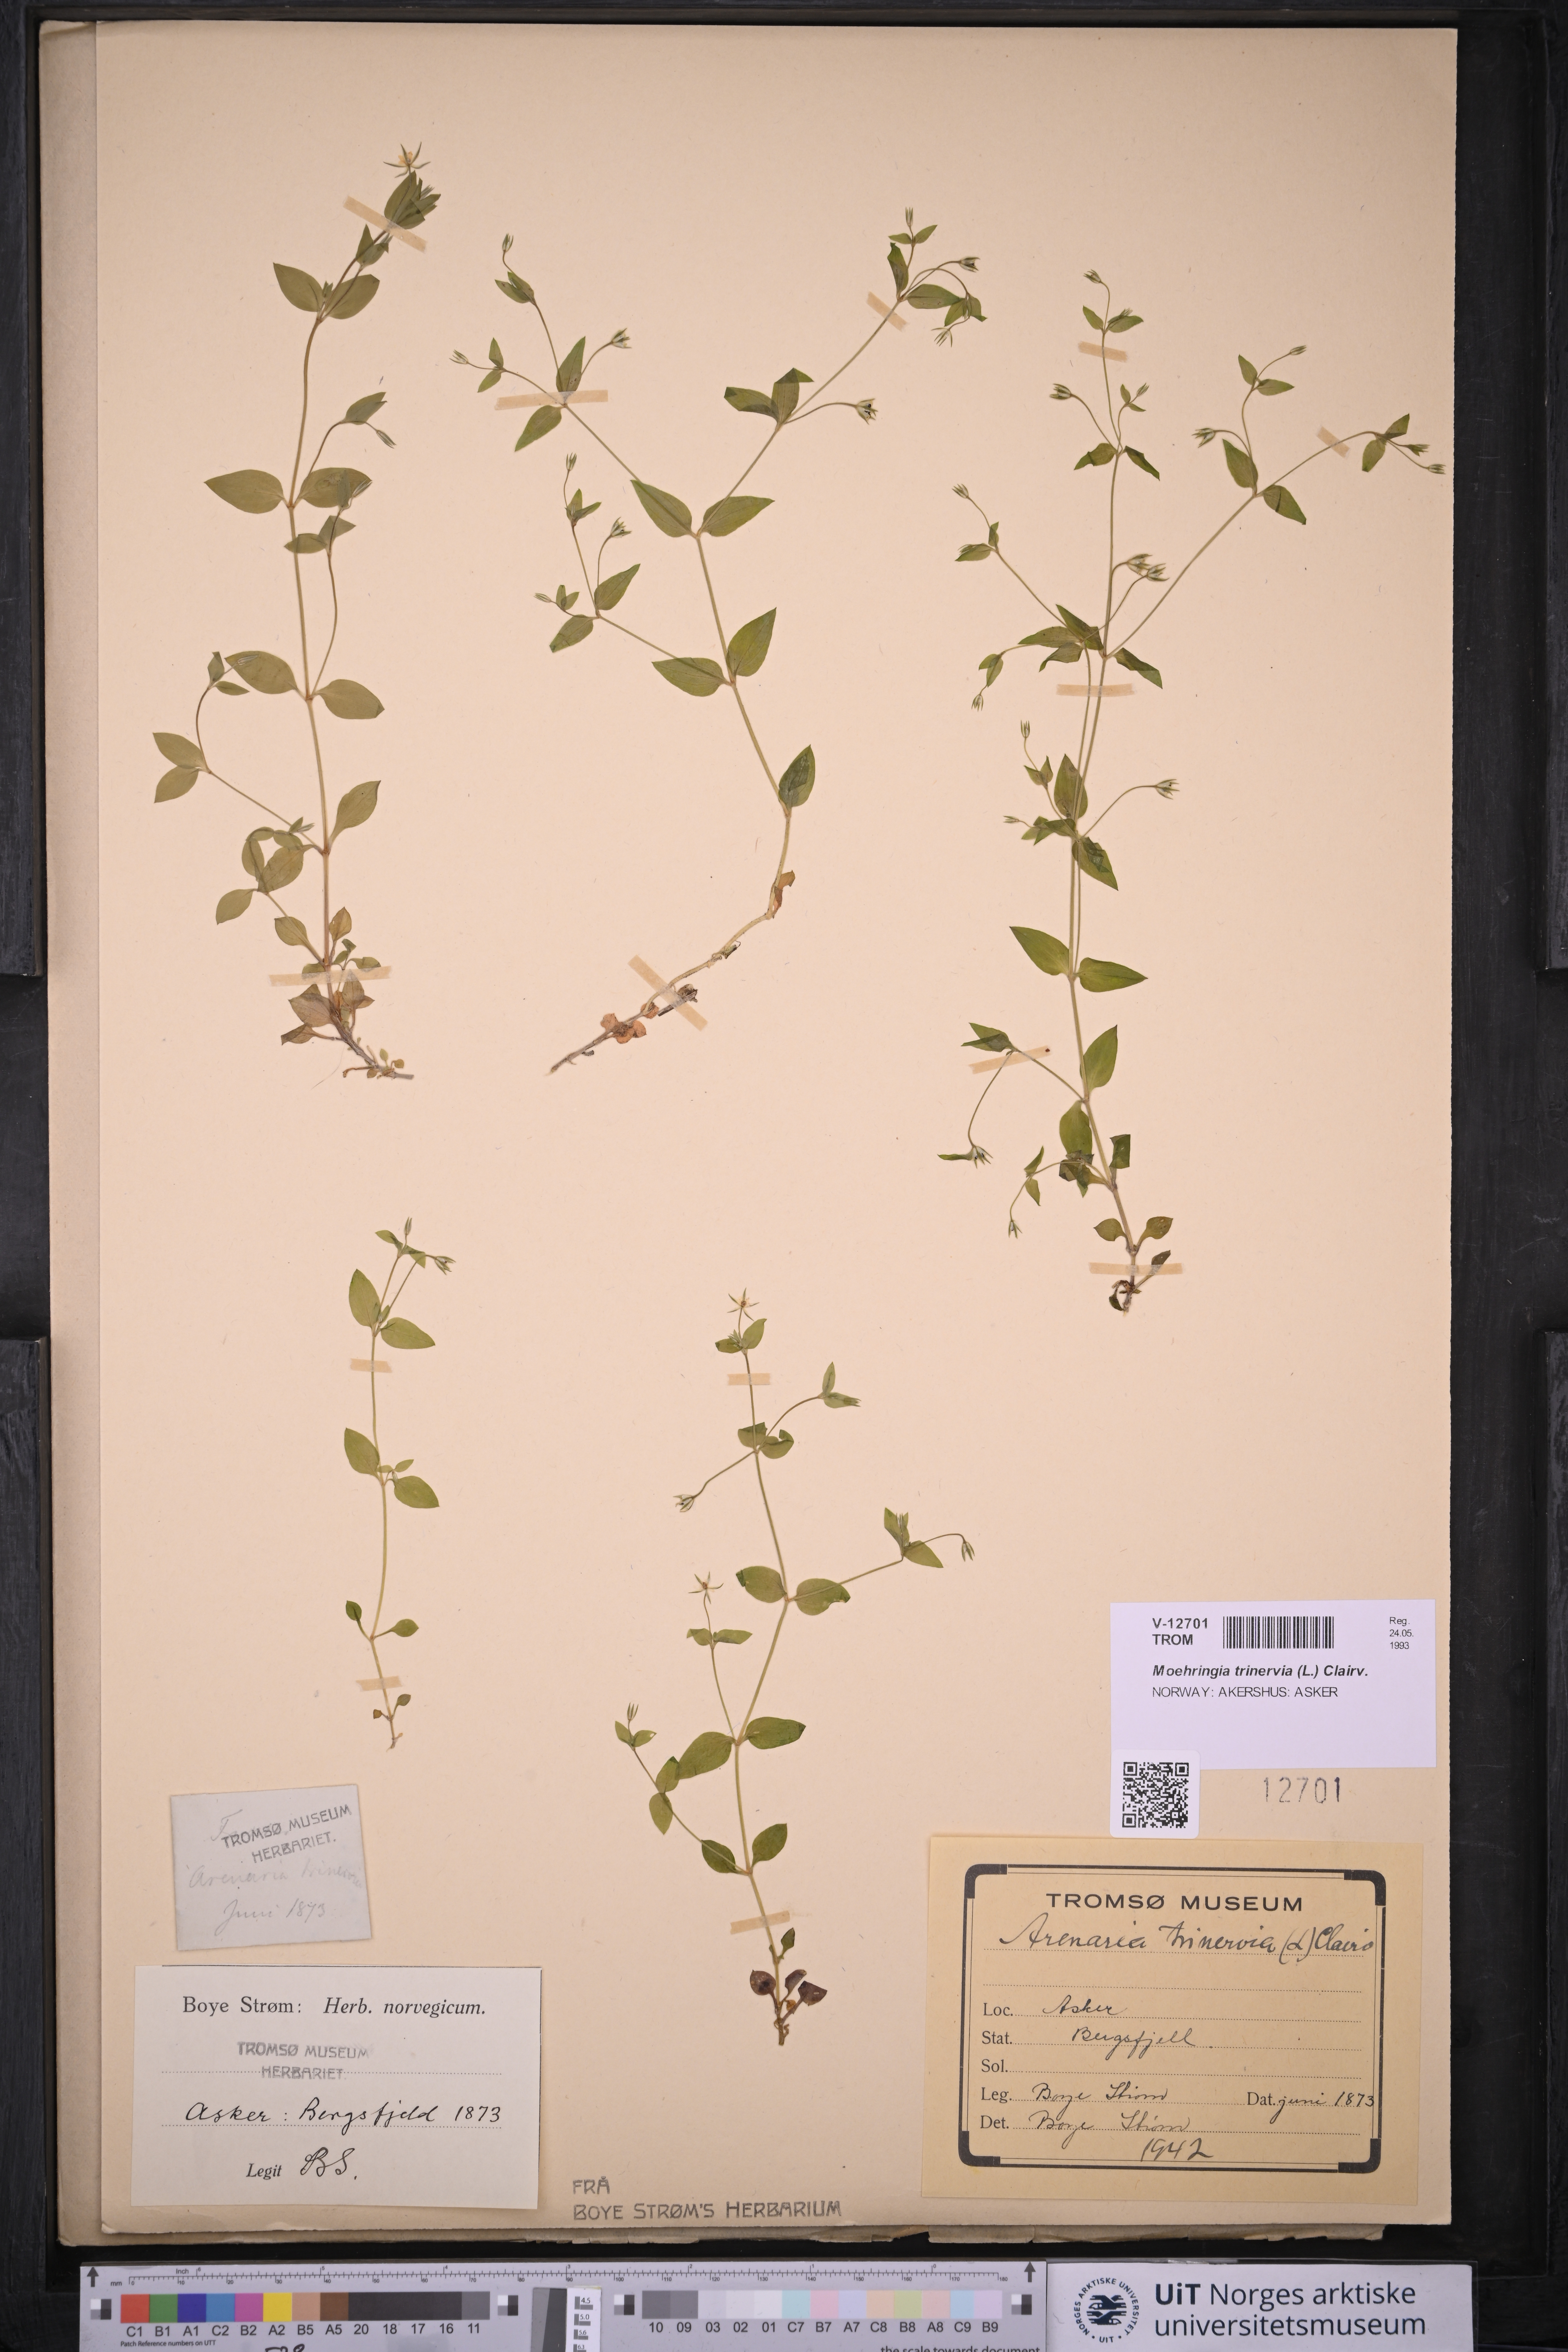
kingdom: Plantae
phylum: Tracheophyta
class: Magnoliopsida
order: Caryophyllales
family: Caryophyllaceae
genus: Moehringia
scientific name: Moehringia trinervia
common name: Three-nerved sandwort
